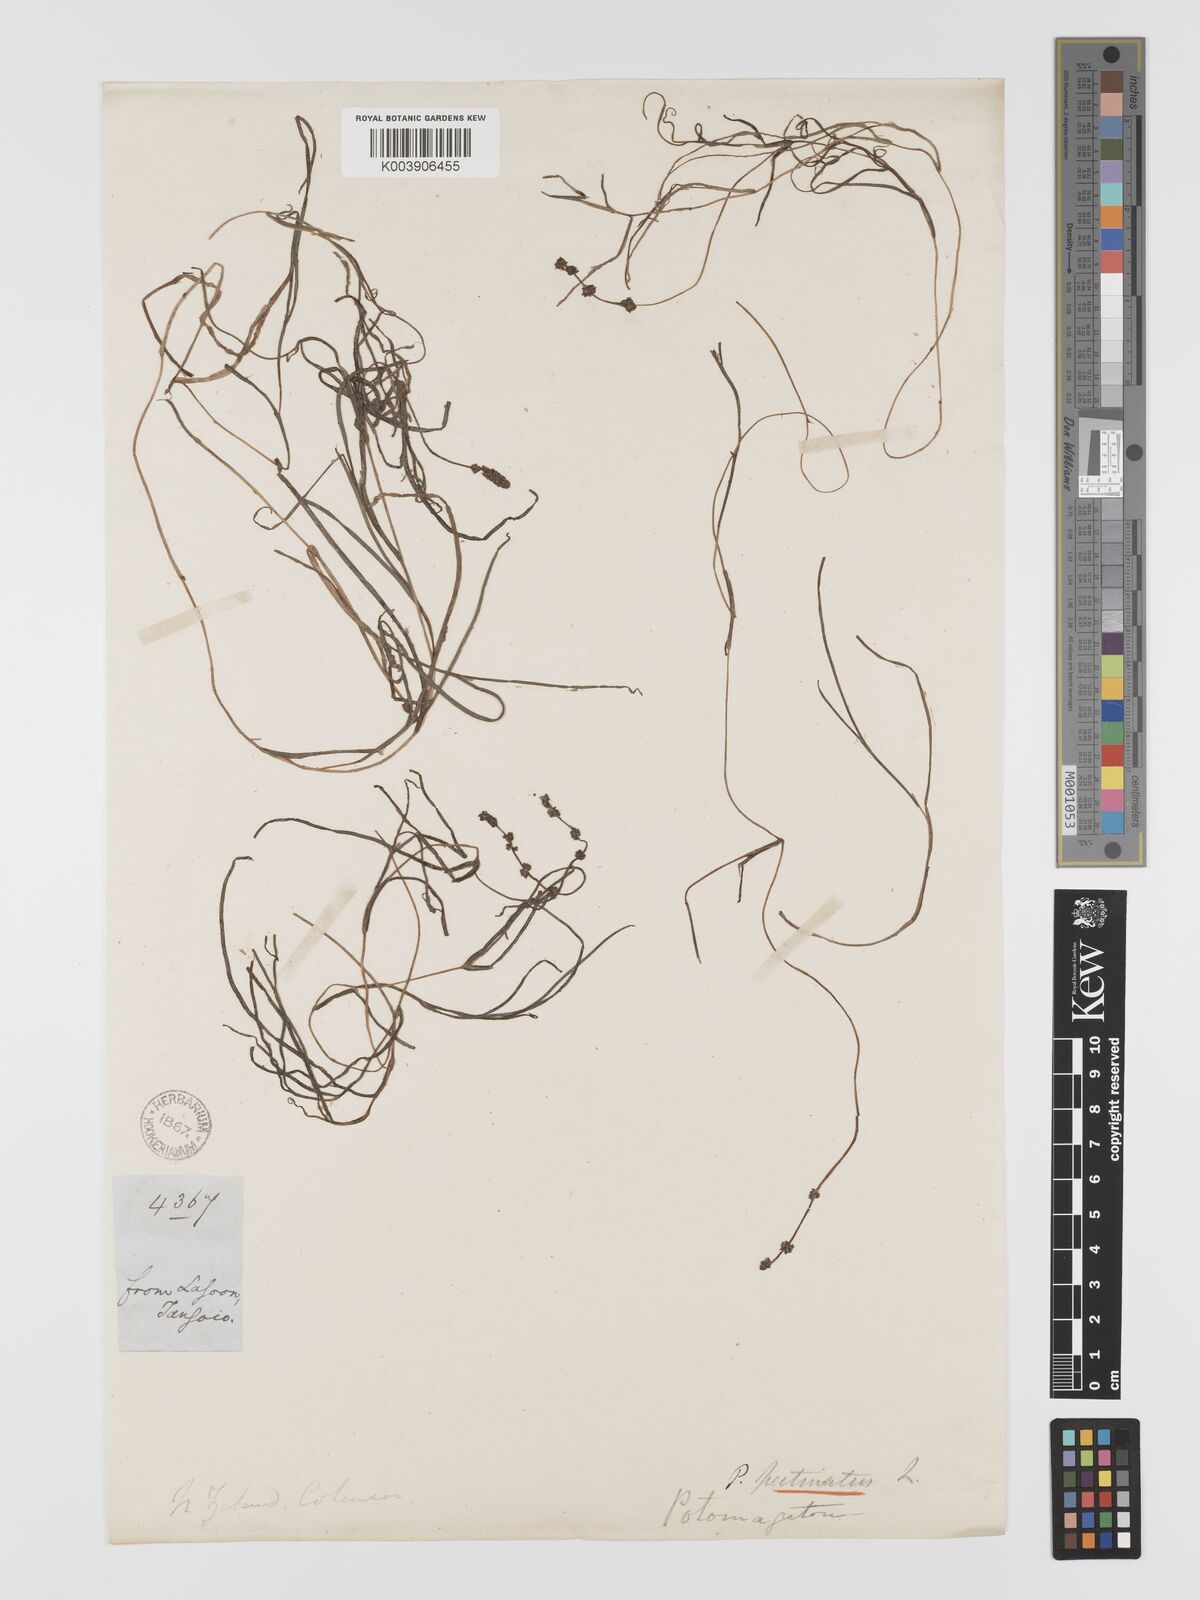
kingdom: Plantae
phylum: Tracheophyta
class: Liliopsida
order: Alismatales
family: Potamogetonaceae
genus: Stuckenia
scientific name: Stuckenia pectinata
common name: Sago pondweed
